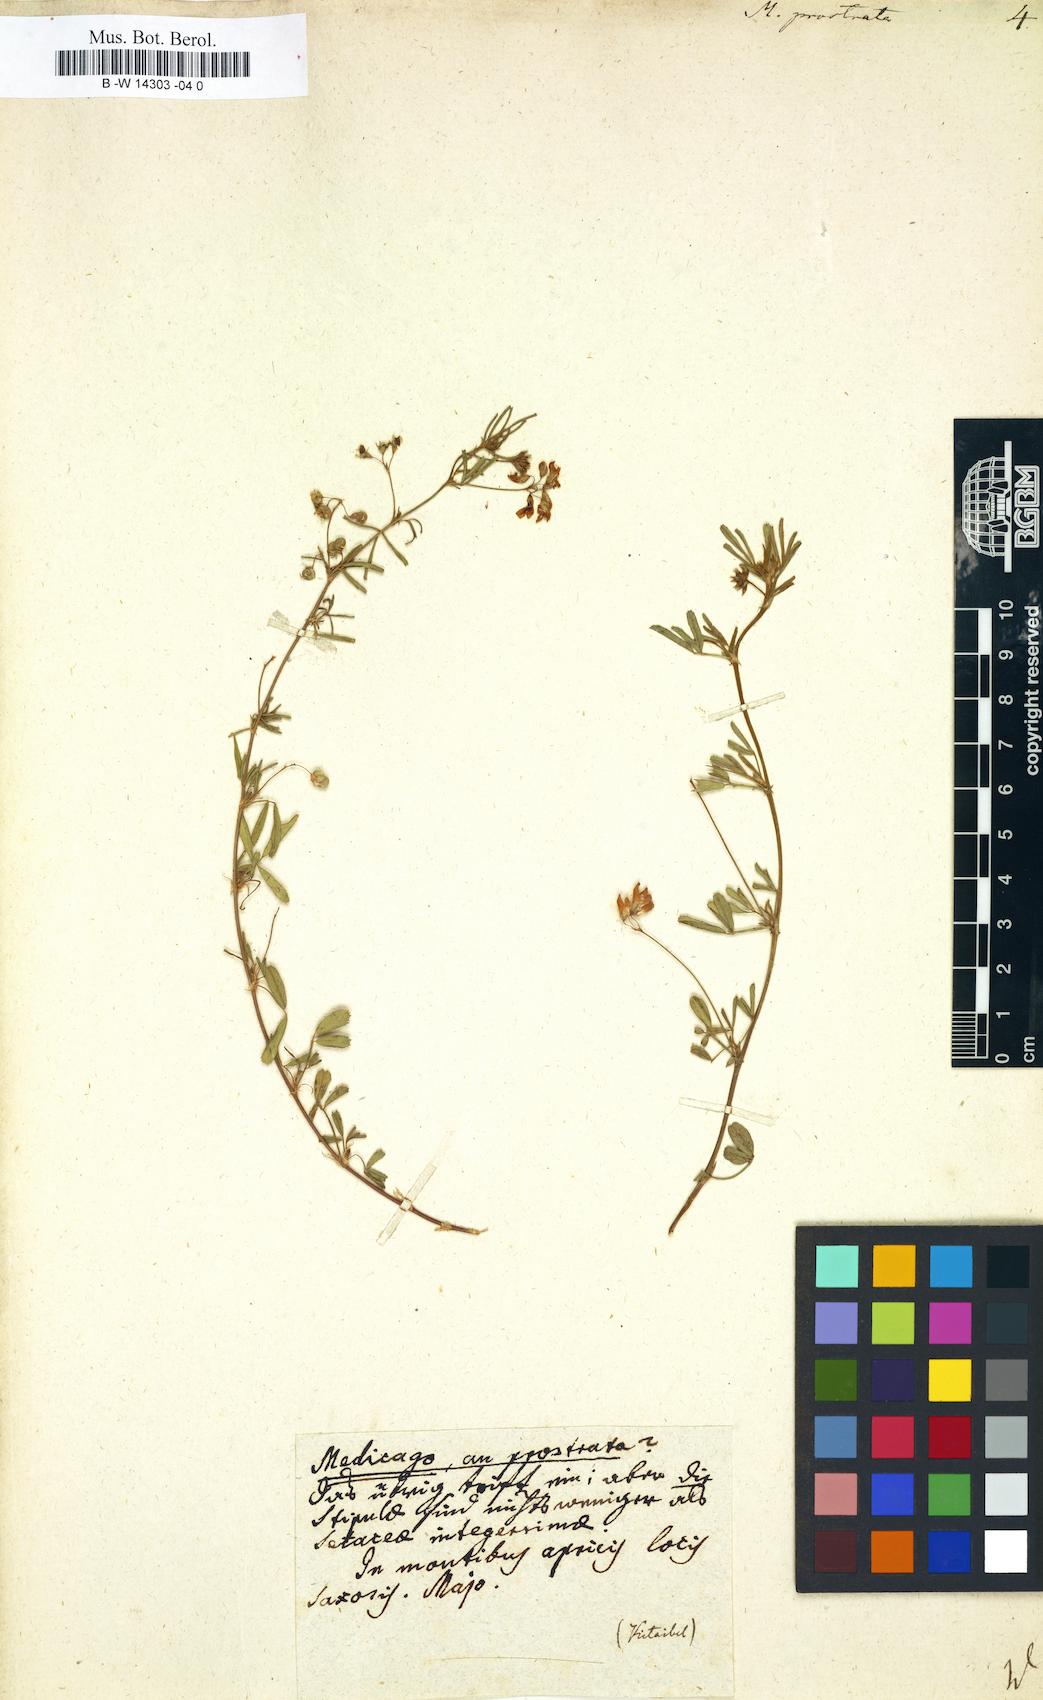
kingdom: Plantae
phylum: Tracheophyta
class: Magnoliopsida
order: Fabales
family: Fabaceae
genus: Medicago
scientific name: Medicago prostrata
